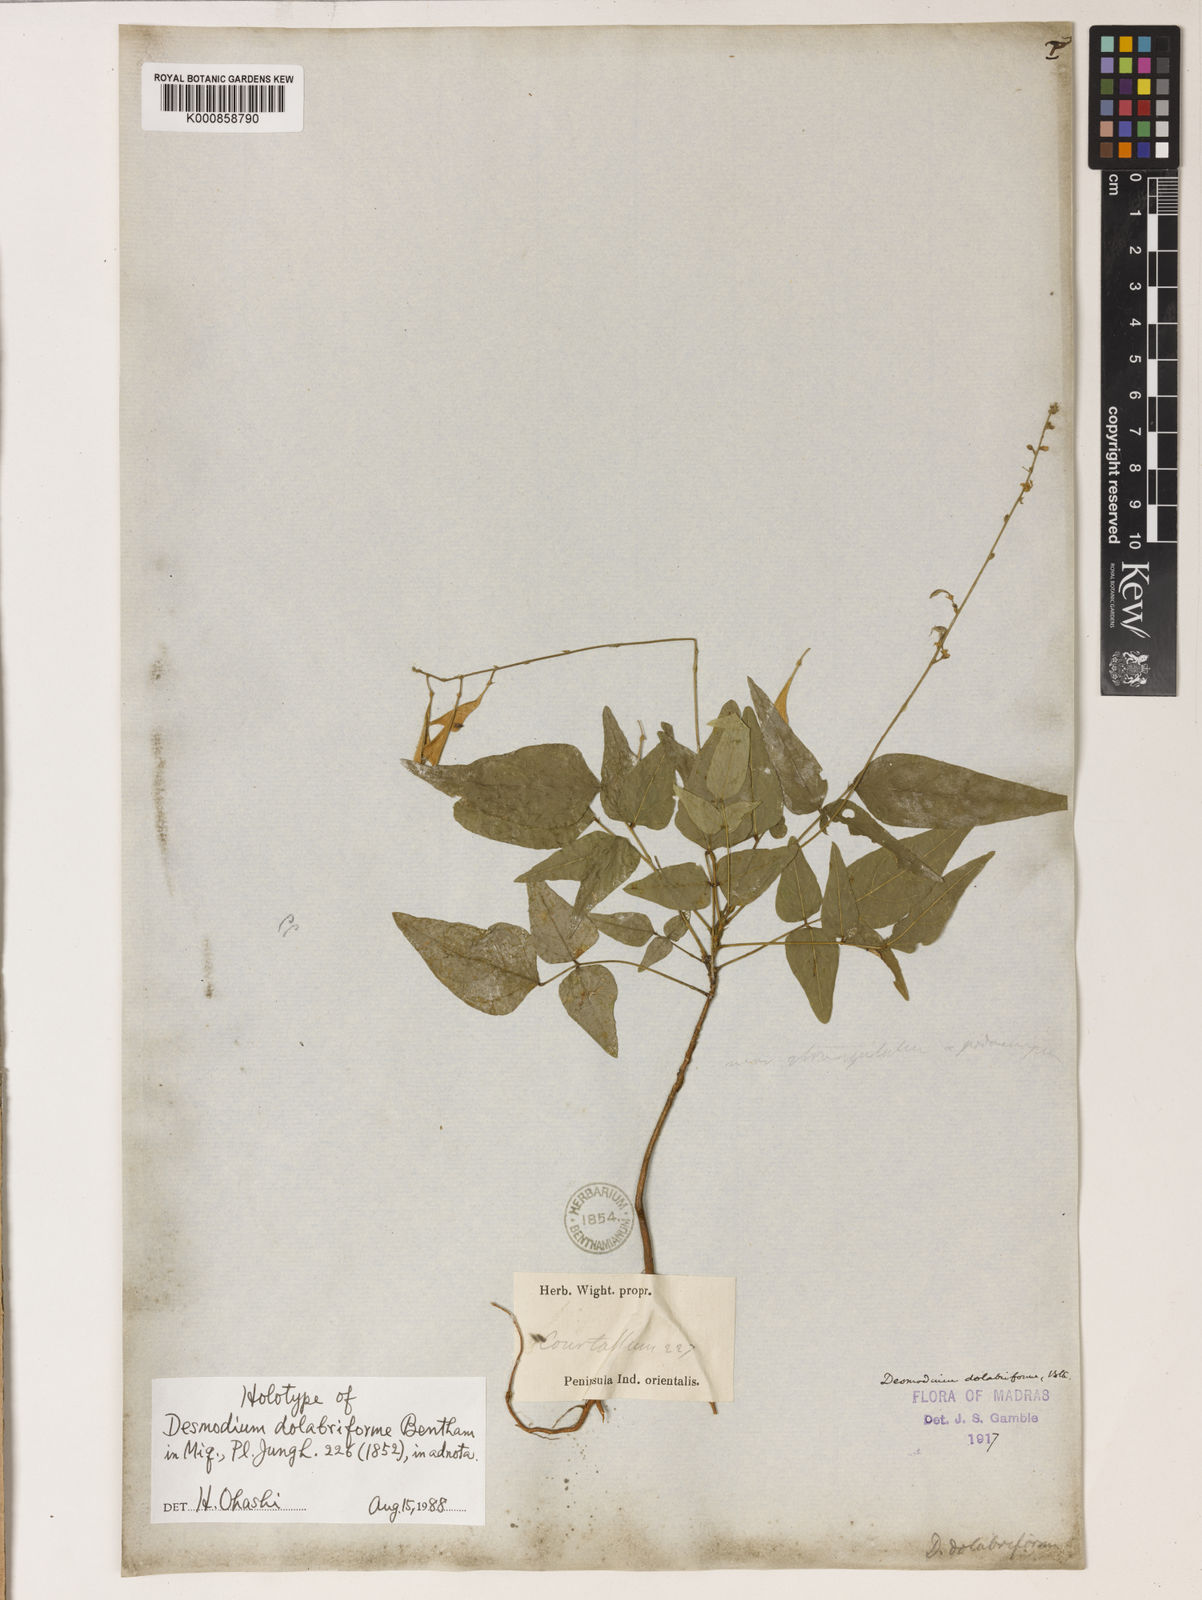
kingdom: Plantae
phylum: Tracheophyta
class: Magnoliopsida
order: Fabales
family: Fabaceae
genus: Monarthrocarpus
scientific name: Monarthrocarpus dolabriformis
